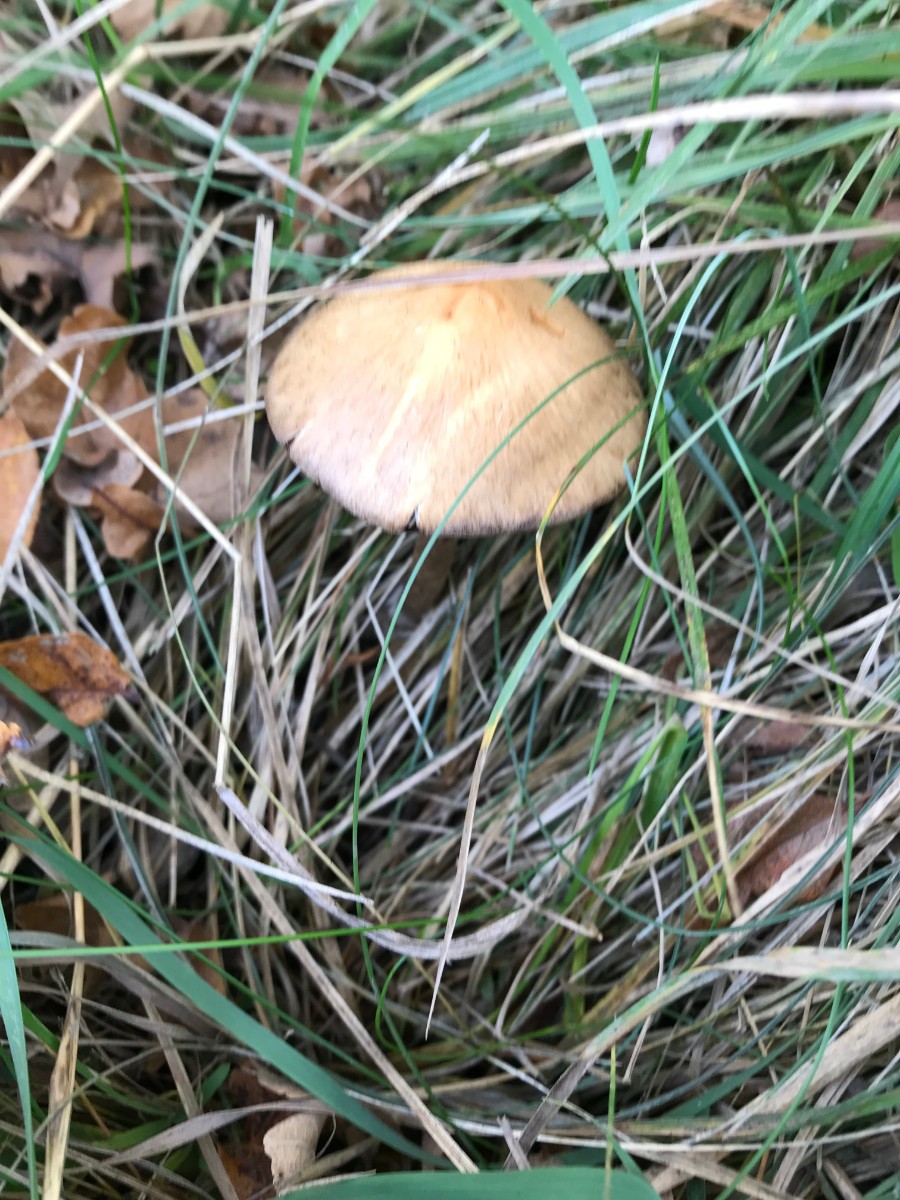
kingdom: Fungi
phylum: Basidiomycota
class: Agaricomycetes
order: Agaricales
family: Psathyrellaceae
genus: Lacrymaria
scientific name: Lacrymaria lacrymabunda
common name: grædende mørkhat
